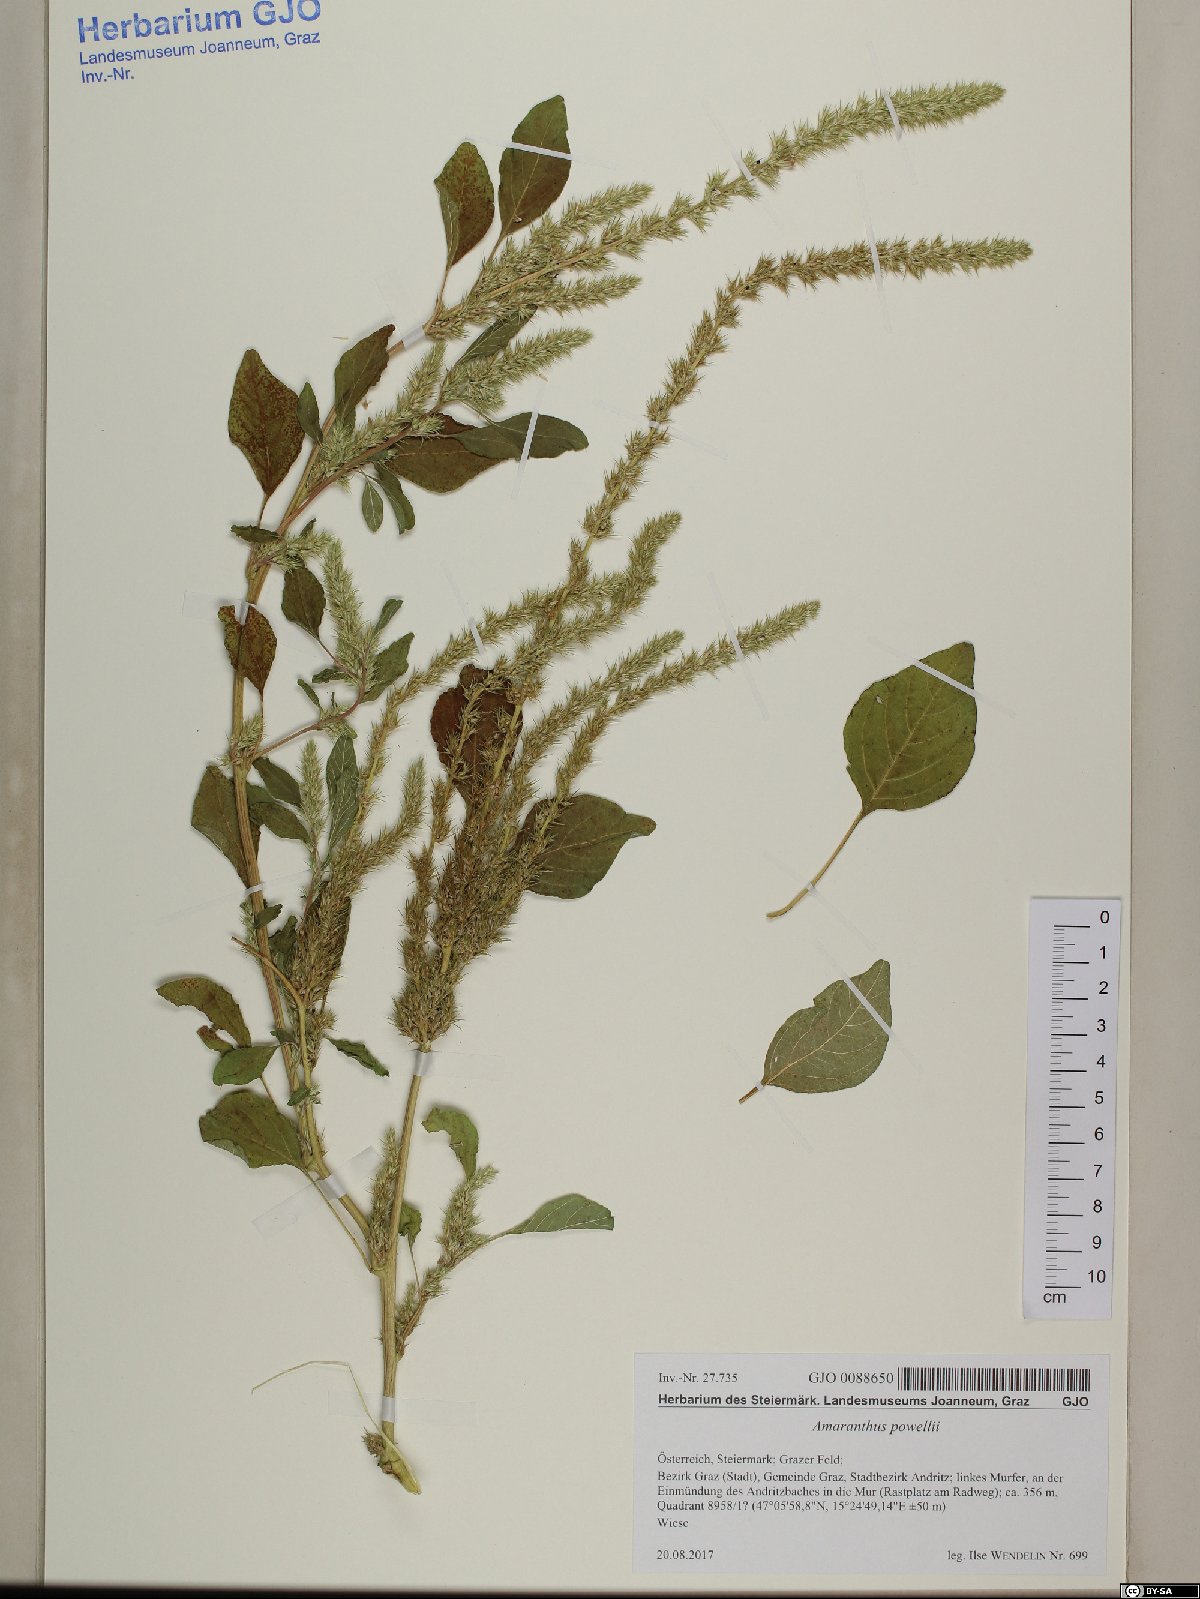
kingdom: Plantae
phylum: Tracheophyta
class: Magnoliopsida
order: Caryophyllales
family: Amaranthaceae
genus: Amaranthus
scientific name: Amaranthus powellii
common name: Powell's amaranth
